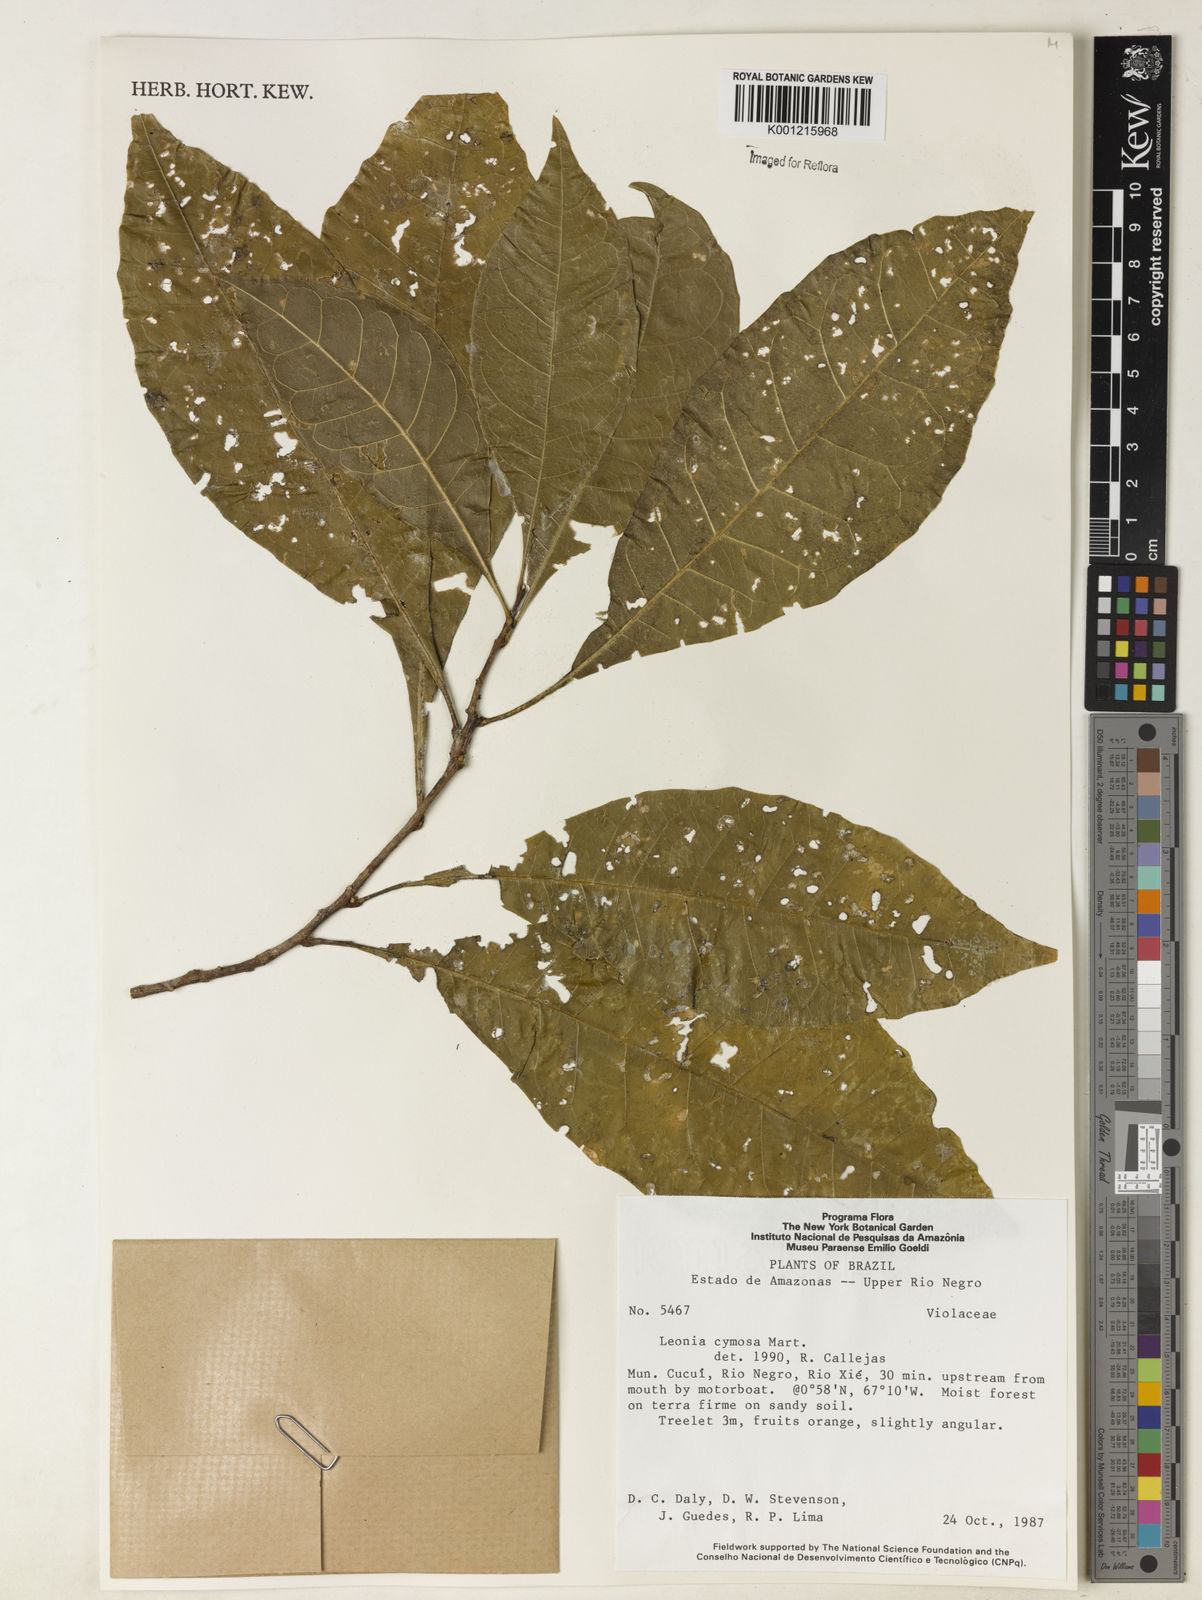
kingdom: Plantae
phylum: Tracheophyta
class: Magnoliopsida
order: Malpighiales
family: Violaceae
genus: Leonia
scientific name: Leonia cymosa
